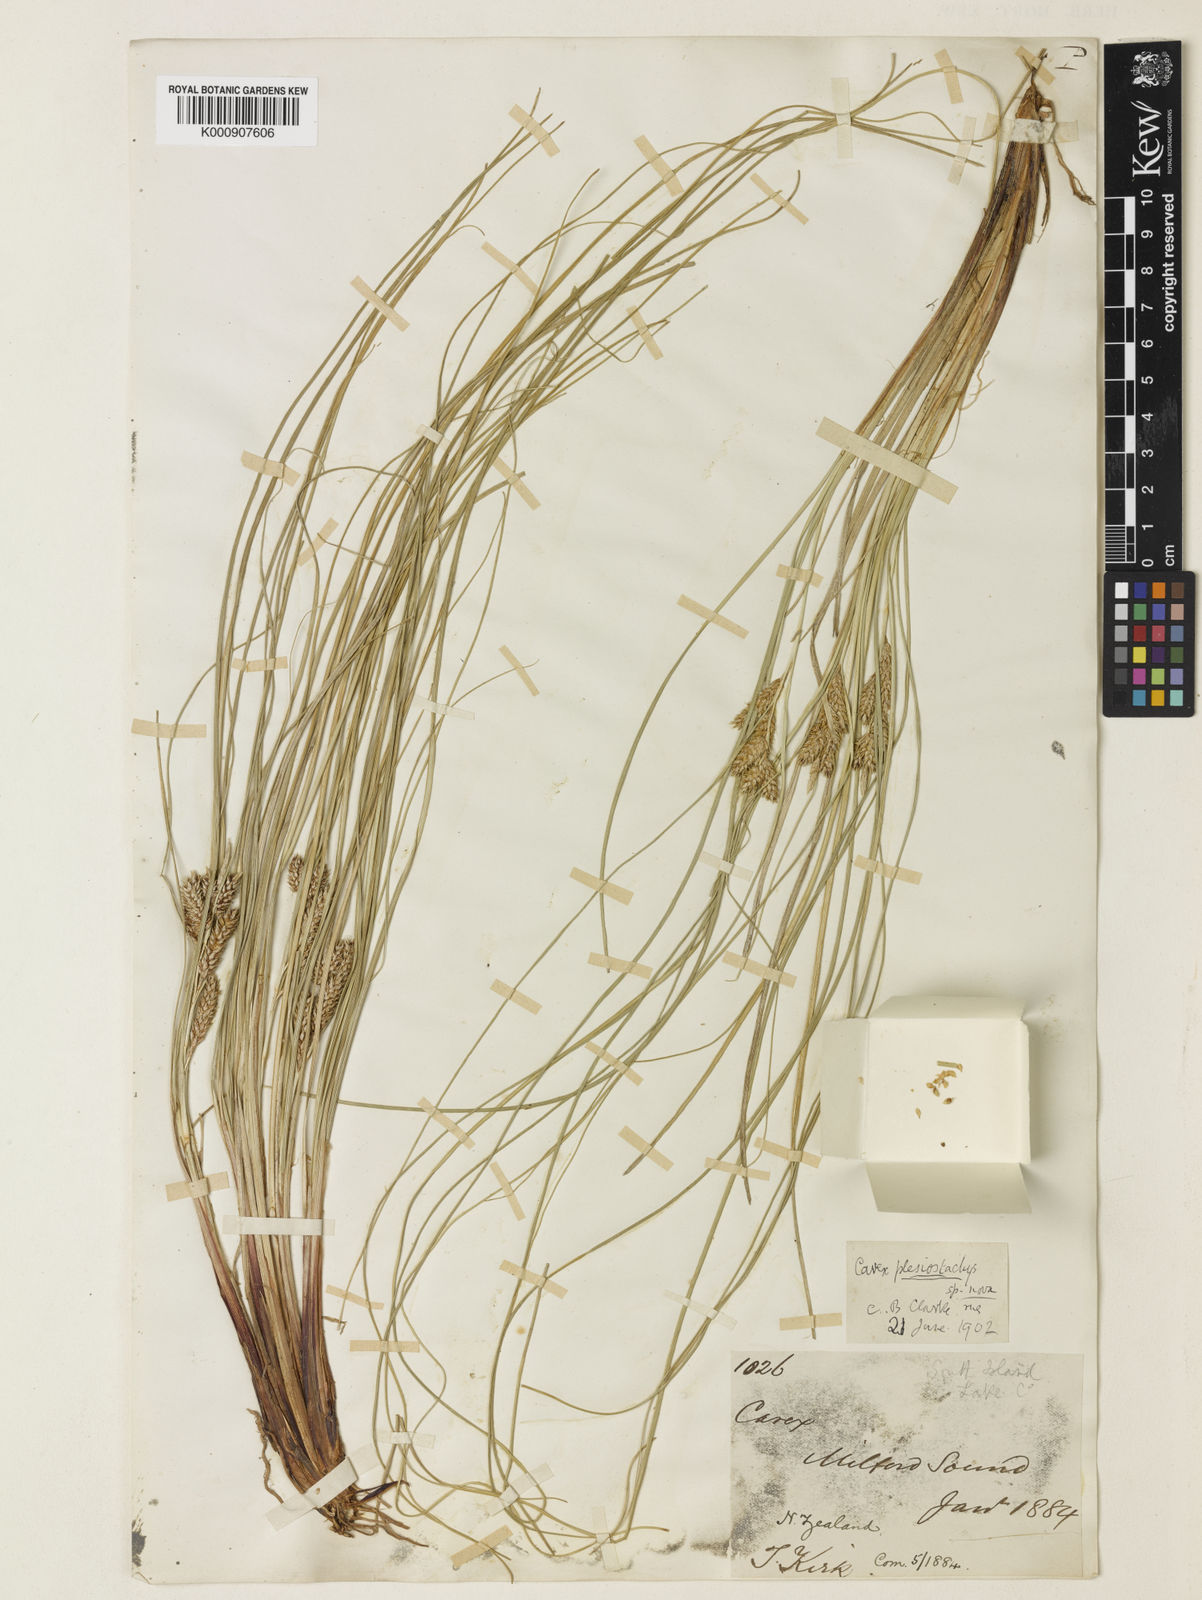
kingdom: Plantae
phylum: Tracheophyta
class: Liliopsida
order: Poales
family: Cyperaceae
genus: Carex
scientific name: Carex
